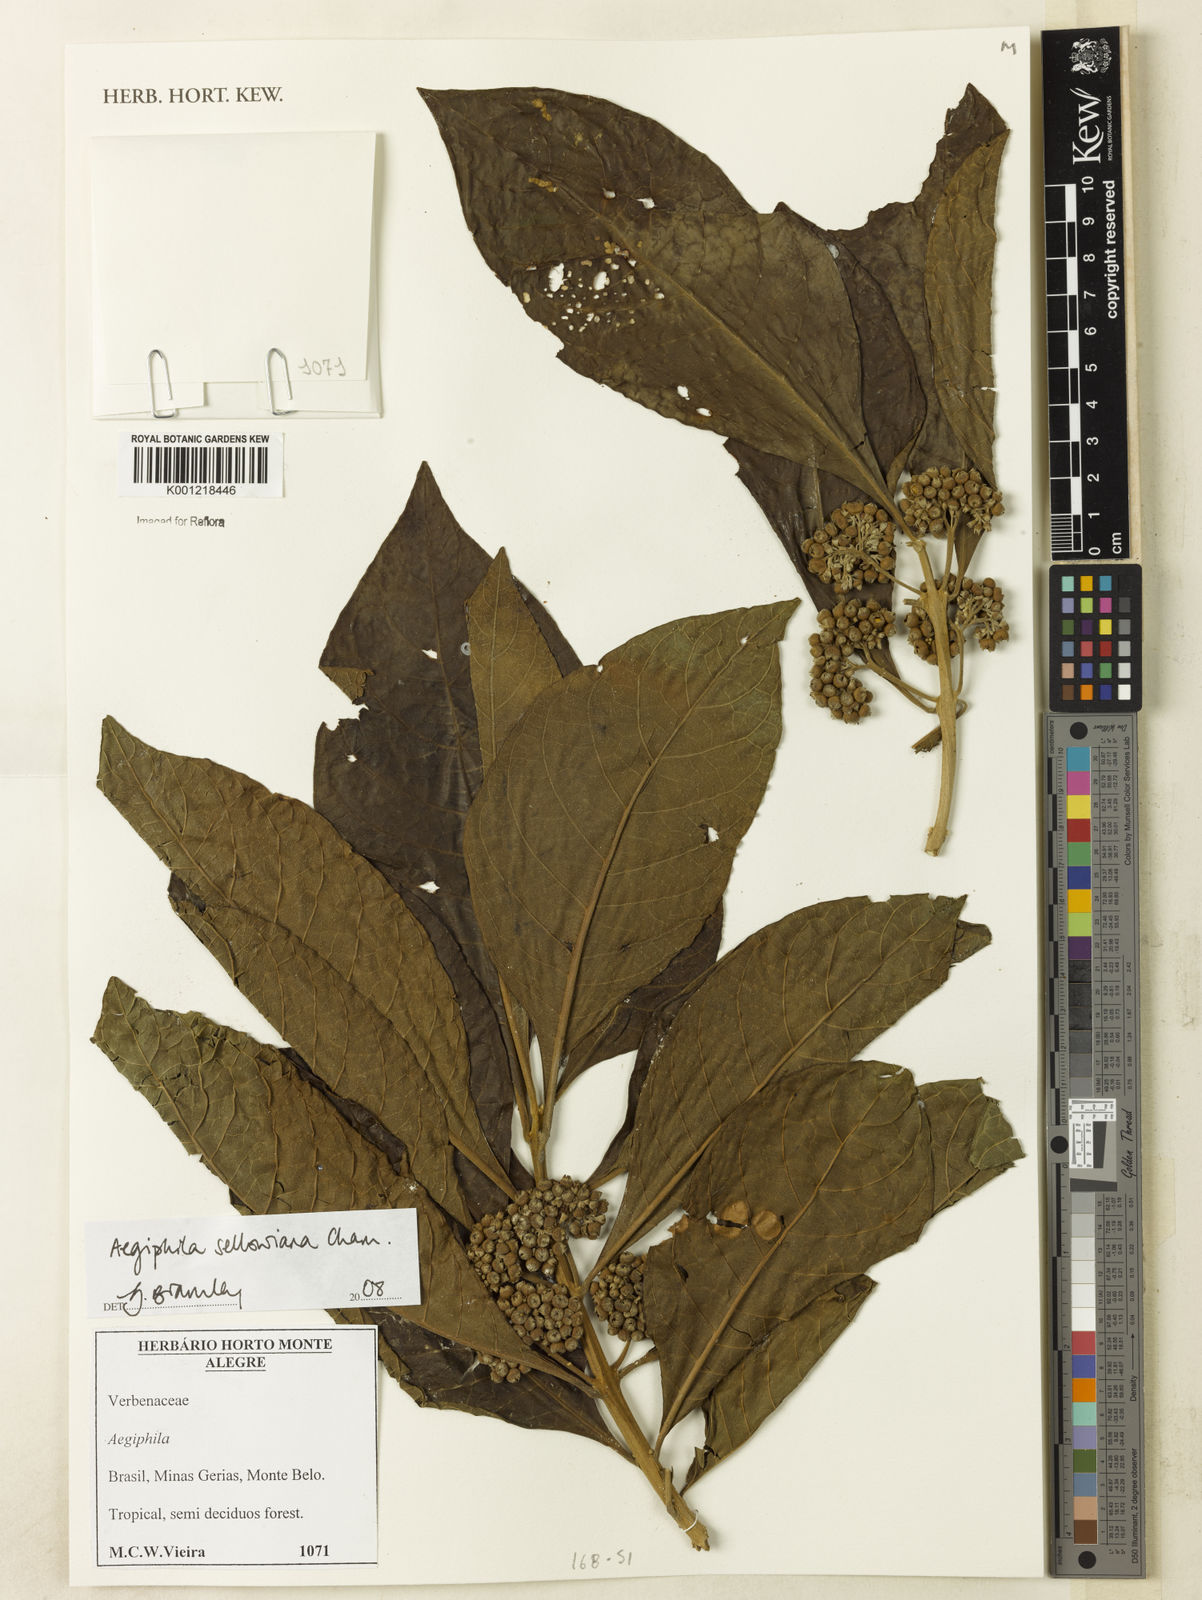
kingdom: Plantae
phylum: Tracheophyta
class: Magnoliopsida
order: Lamiales
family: Lamiaceae
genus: Aegiphila
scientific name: Aegiphila verticillata
